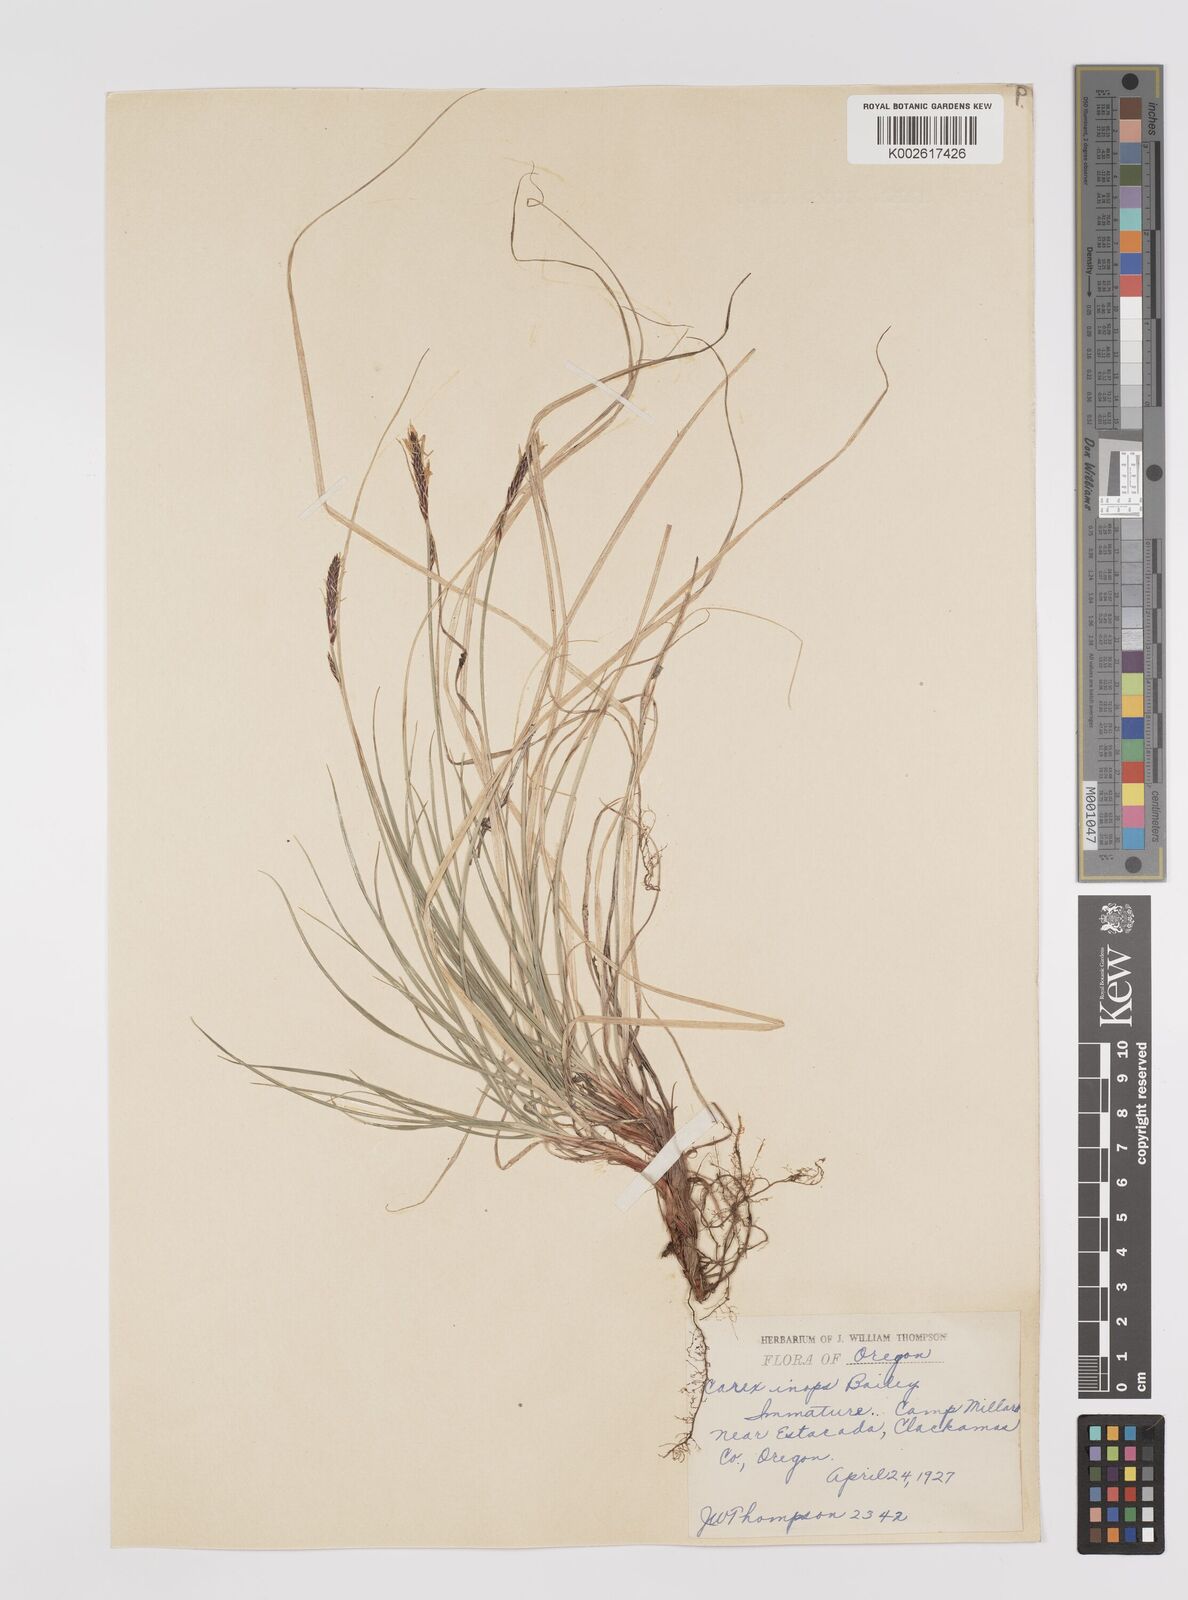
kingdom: Plantae
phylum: Tracheophyta
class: Liliopsida
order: Poales
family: Cyperaceae
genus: Carex
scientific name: Carex inops
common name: Long-stolon sedge
